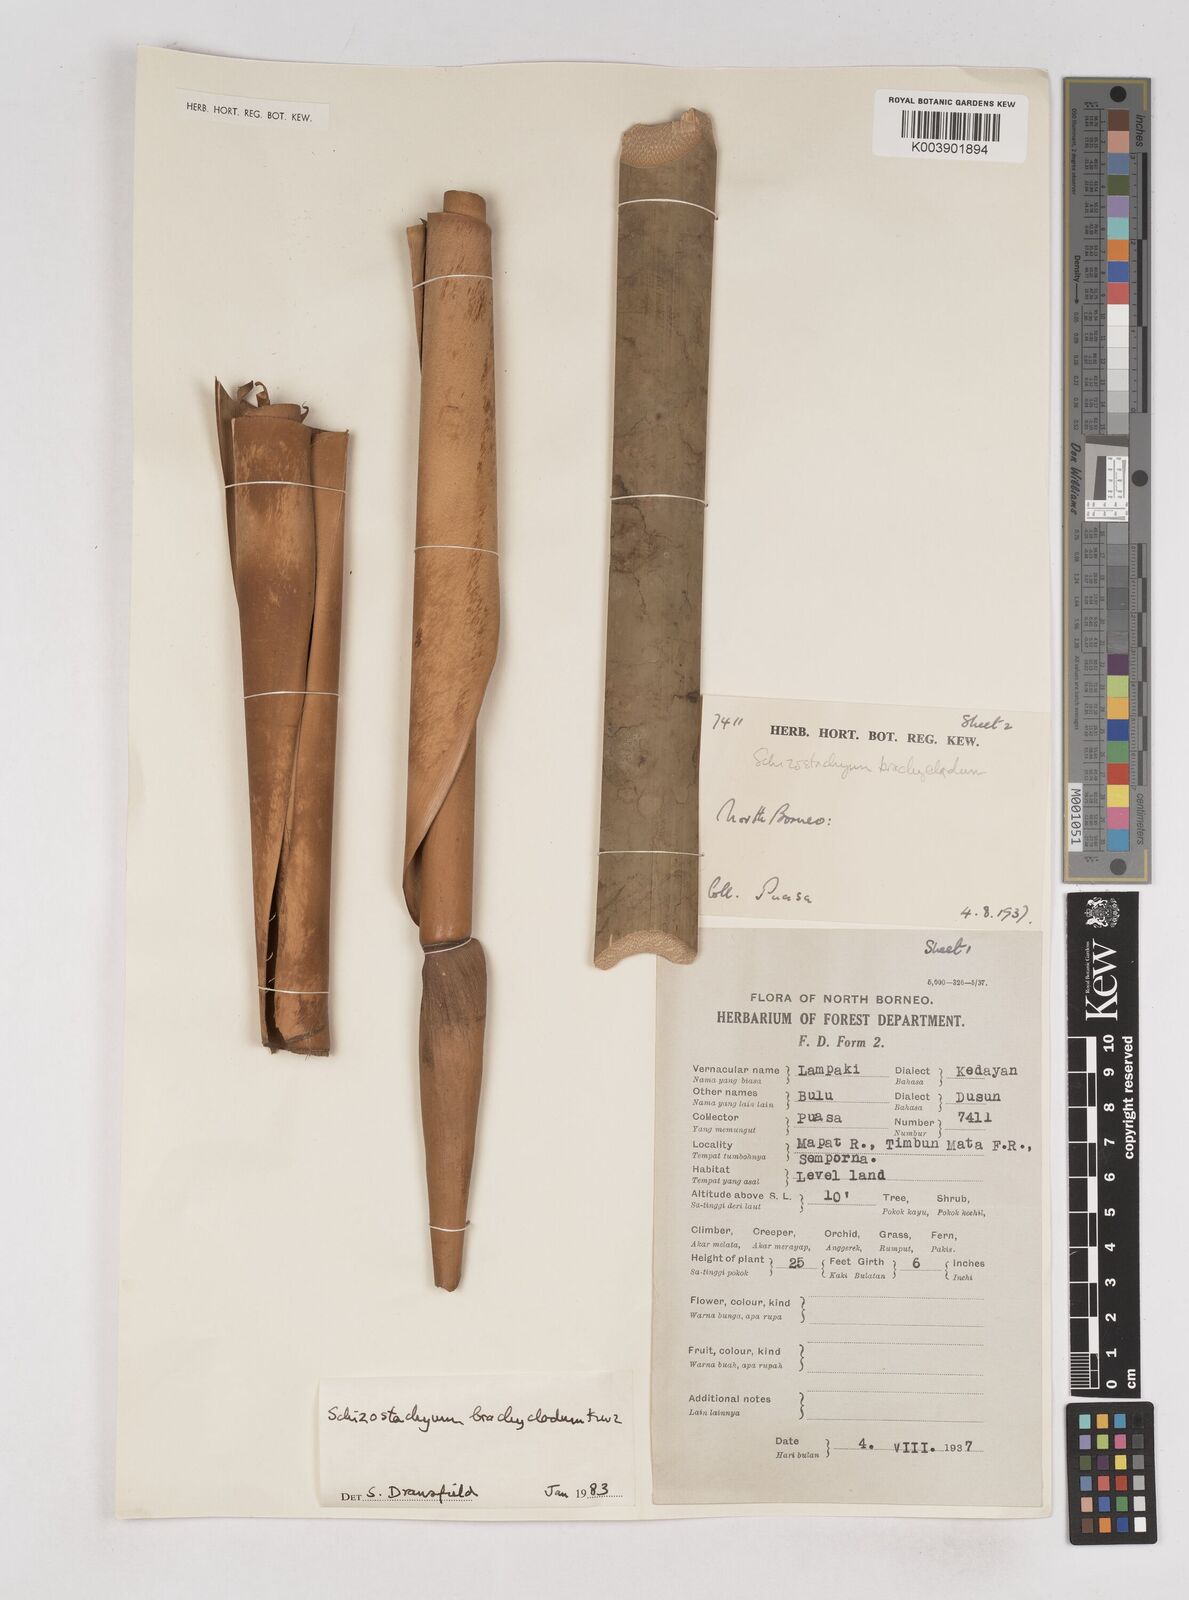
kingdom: Plantae
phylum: Tracheophyta
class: Liliopsida
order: Poales
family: Poaceae
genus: Schizostachyum
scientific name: Schizostachyum brachycladum
